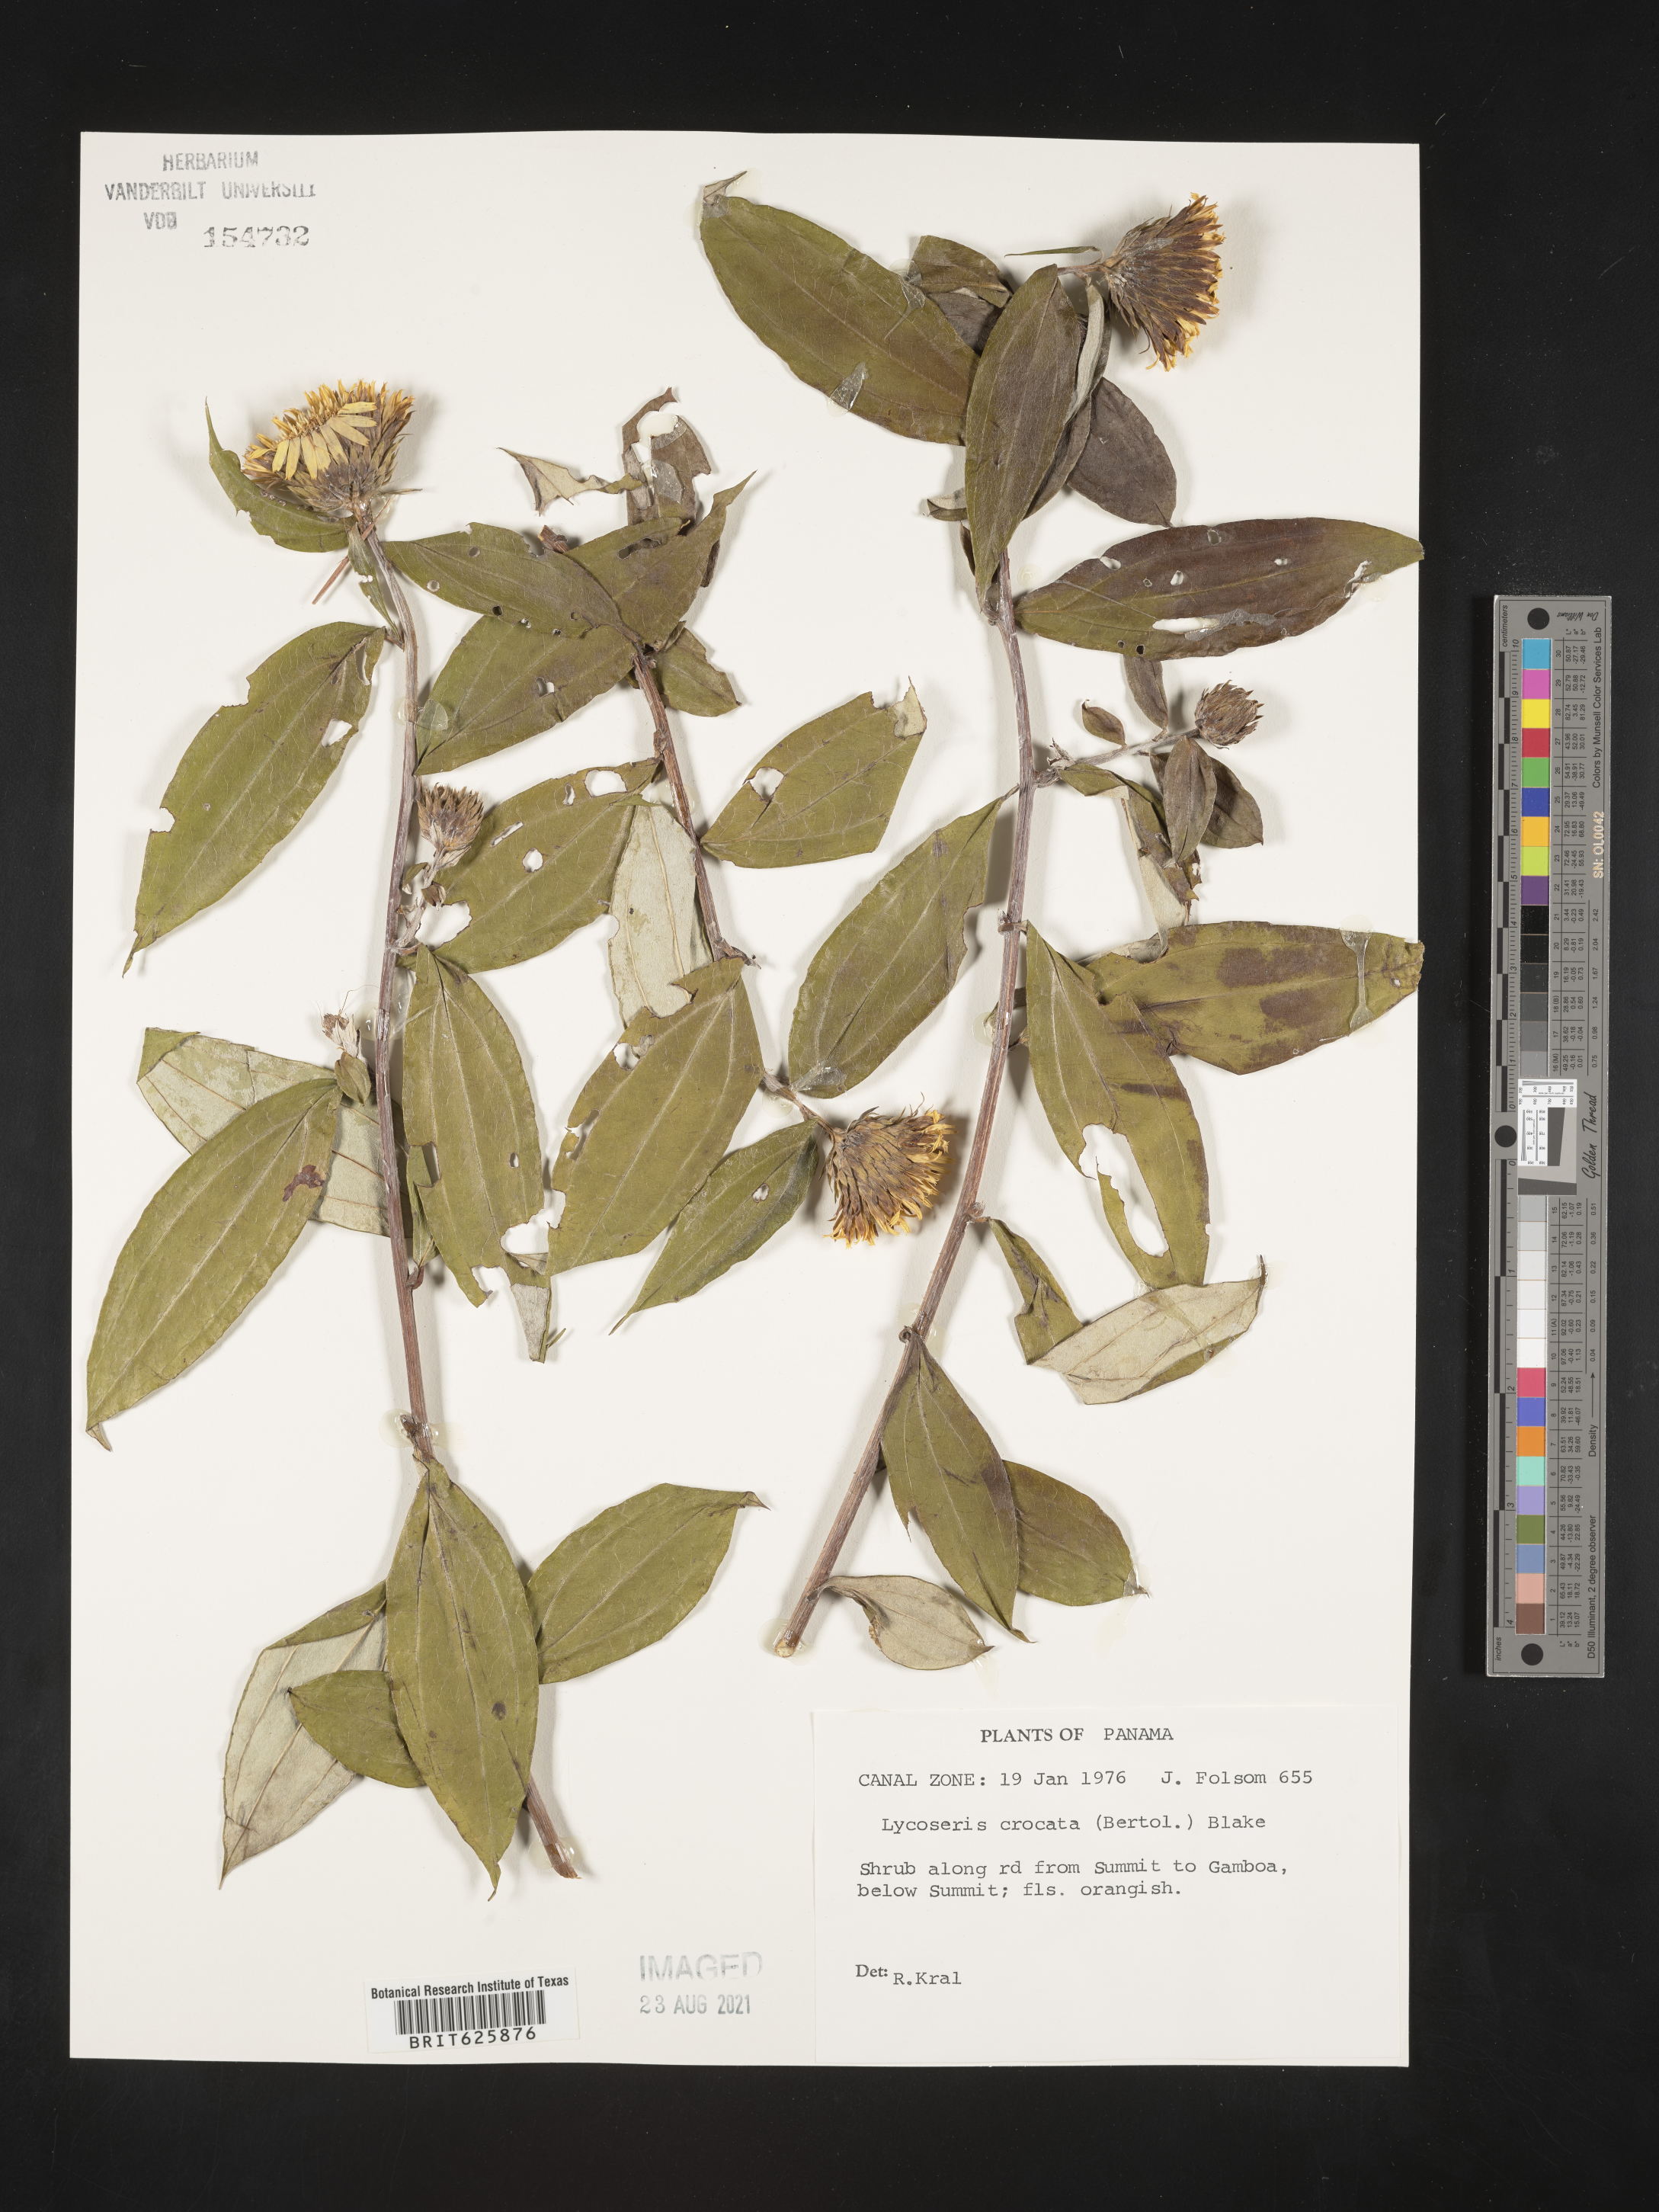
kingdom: Plantae
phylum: Tracheophyta
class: Magnoliopsida
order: Asterales
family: Asteraceae
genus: Lycoseris
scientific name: Lycoseris crocata
